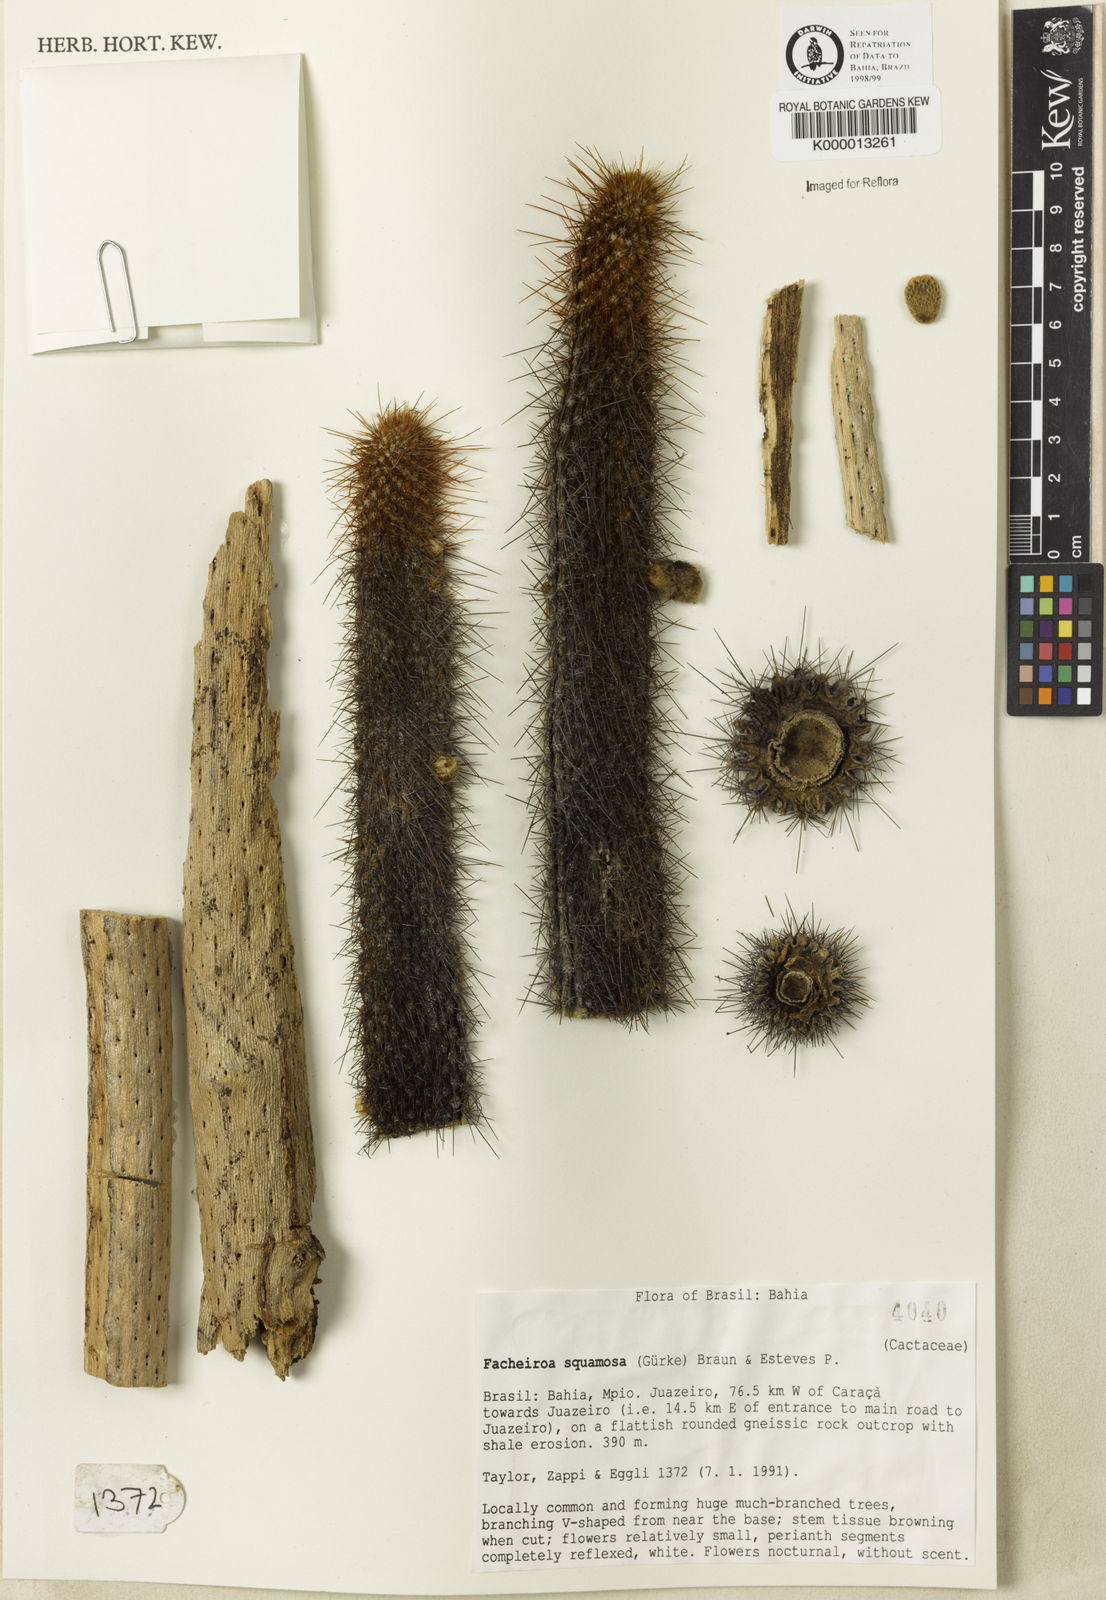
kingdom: Plantae
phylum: Tracheophyta
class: Magnoliopsida
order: Caryophyllales
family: Cactaceae
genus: Facheiroa
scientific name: Facheiroa squamosa
